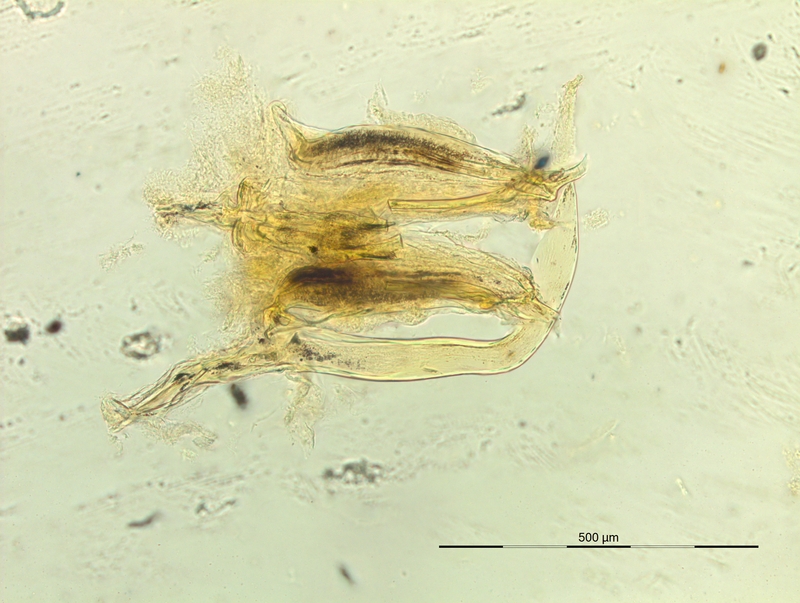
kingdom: Animalia
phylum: Arthropoda
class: Diplopoda
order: Chordeumatida
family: Craspedosomatidae
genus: Iulogona
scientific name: Iulogona tirolensis
